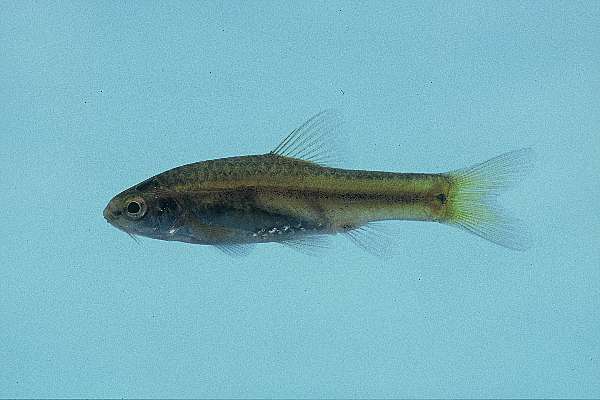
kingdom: Animalia
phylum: Chordata
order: Cypriniformes
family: Cyprinidae
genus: Barbus
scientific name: Barbus
